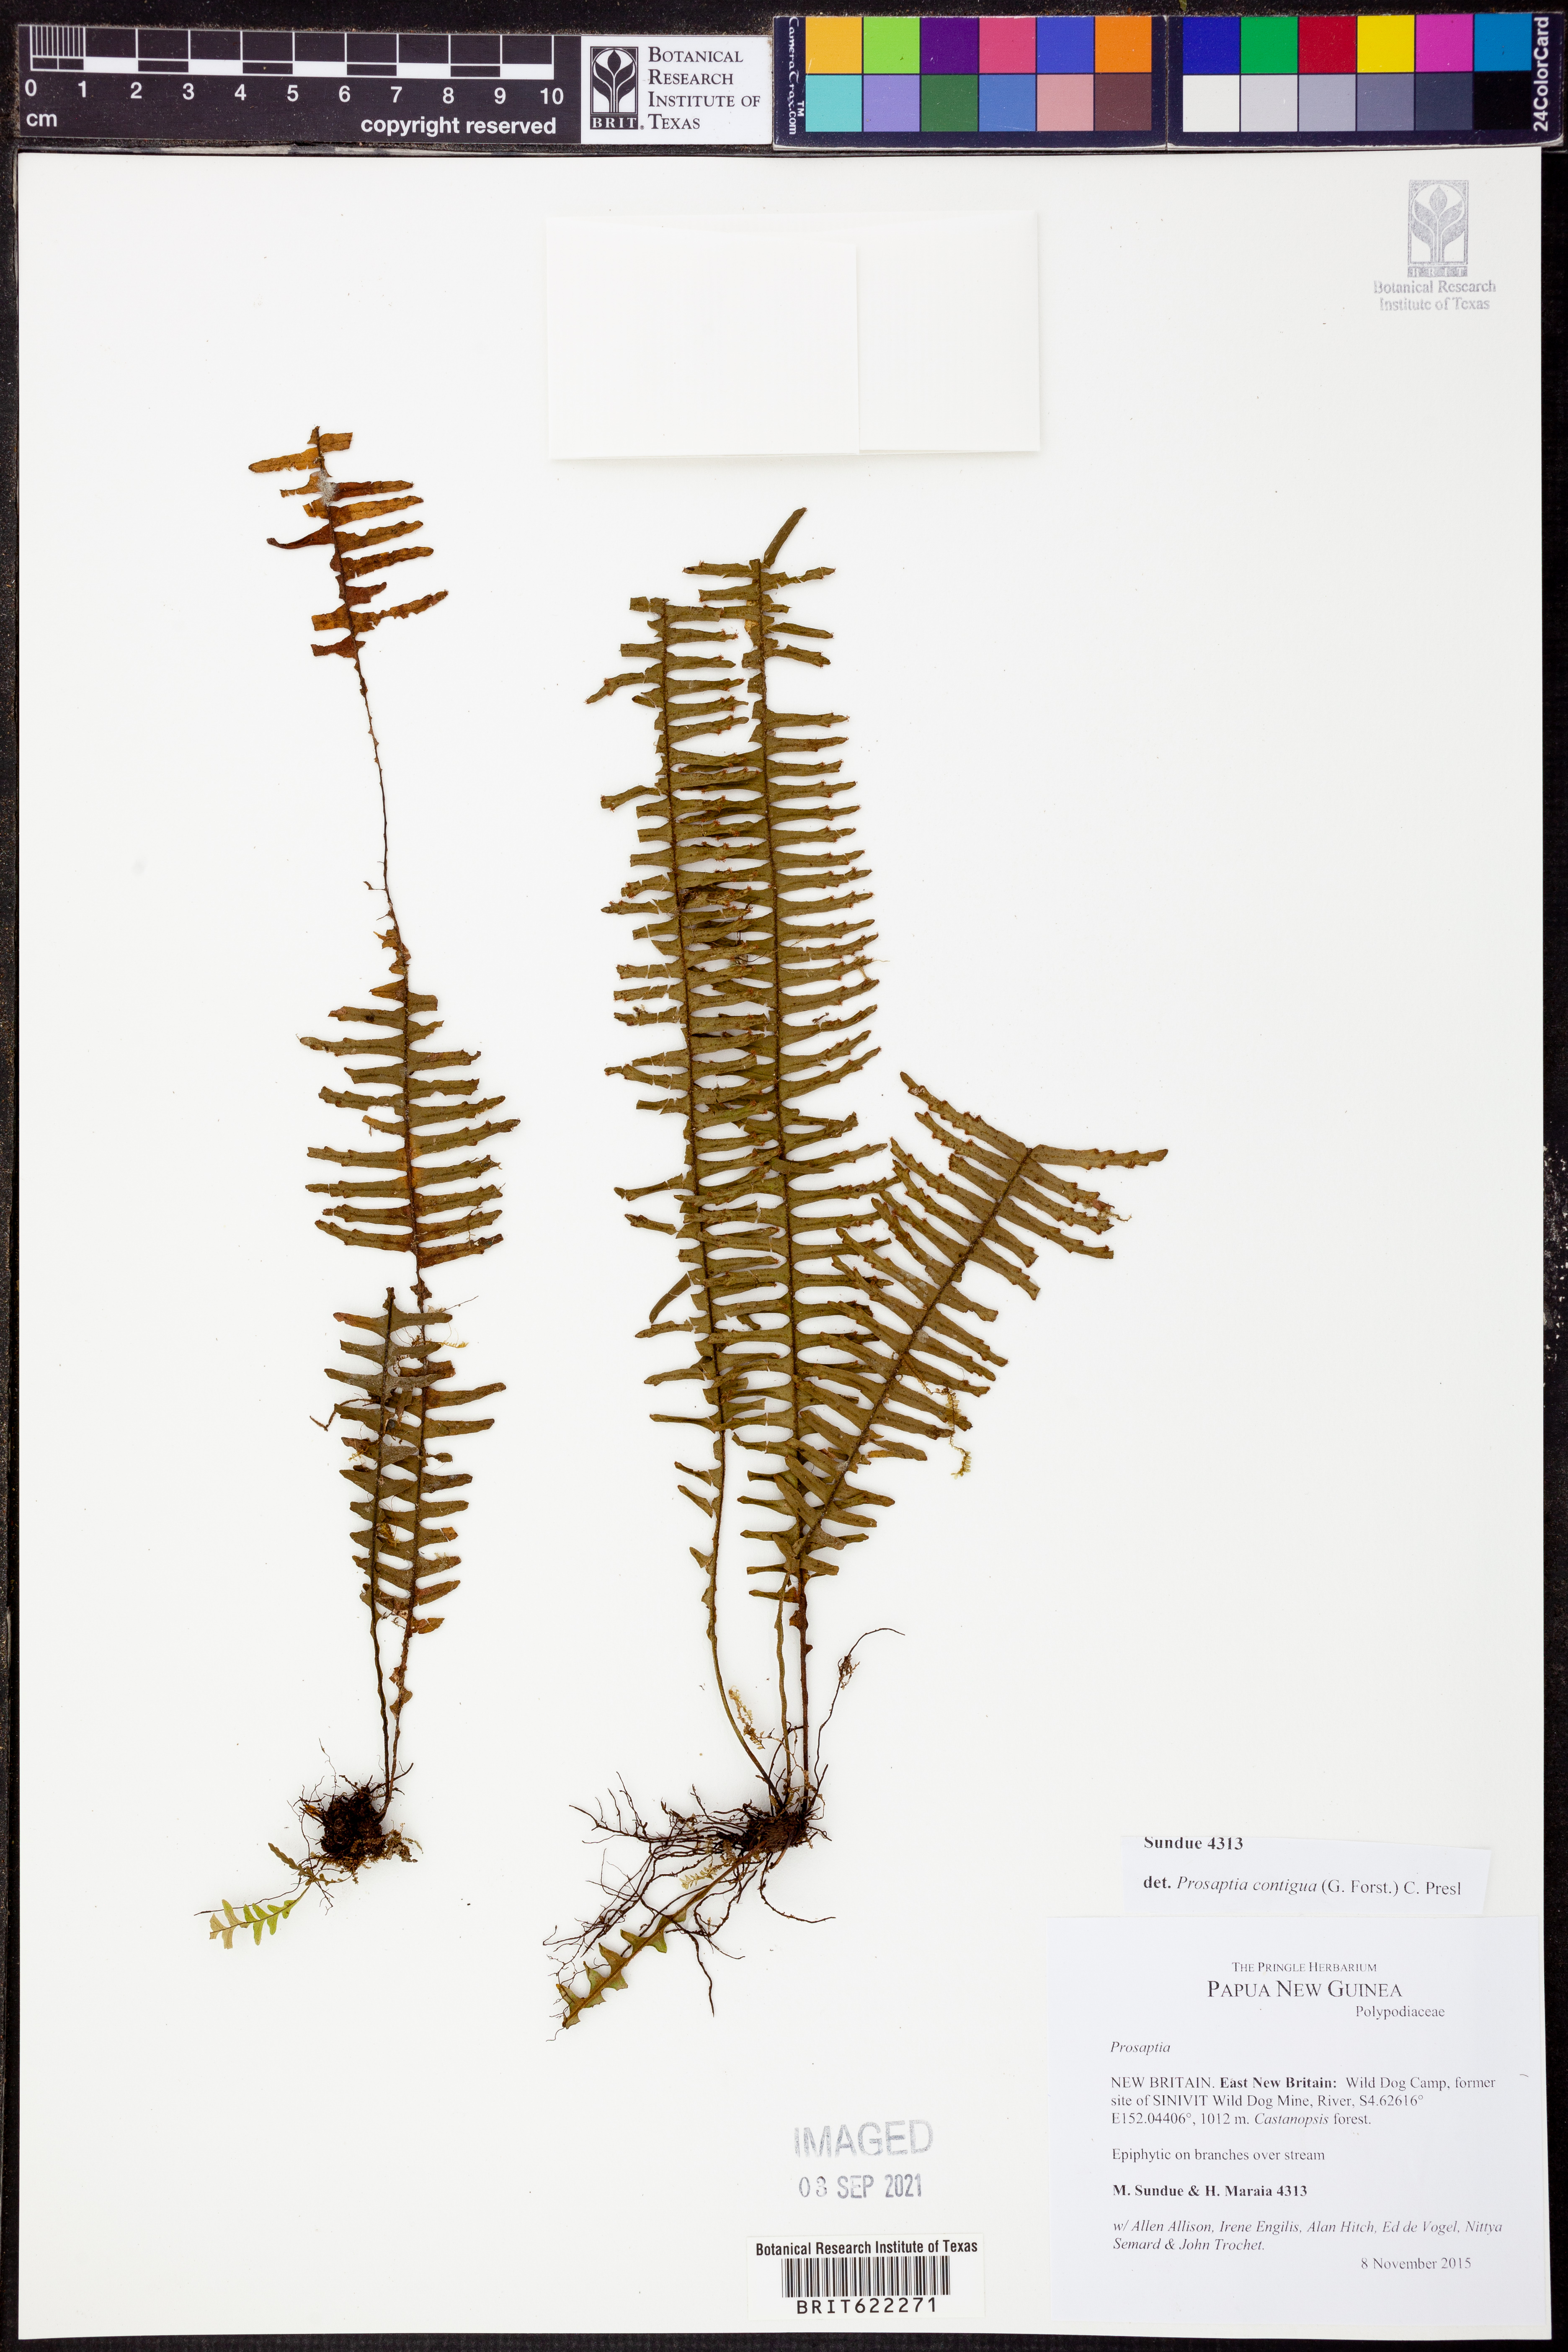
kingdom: Plantae
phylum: Tracheophyta
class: Polypodiopsida
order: Polypodiales
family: Polypodiaceae
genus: Prosaptia
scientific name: Prosaptia contigua
